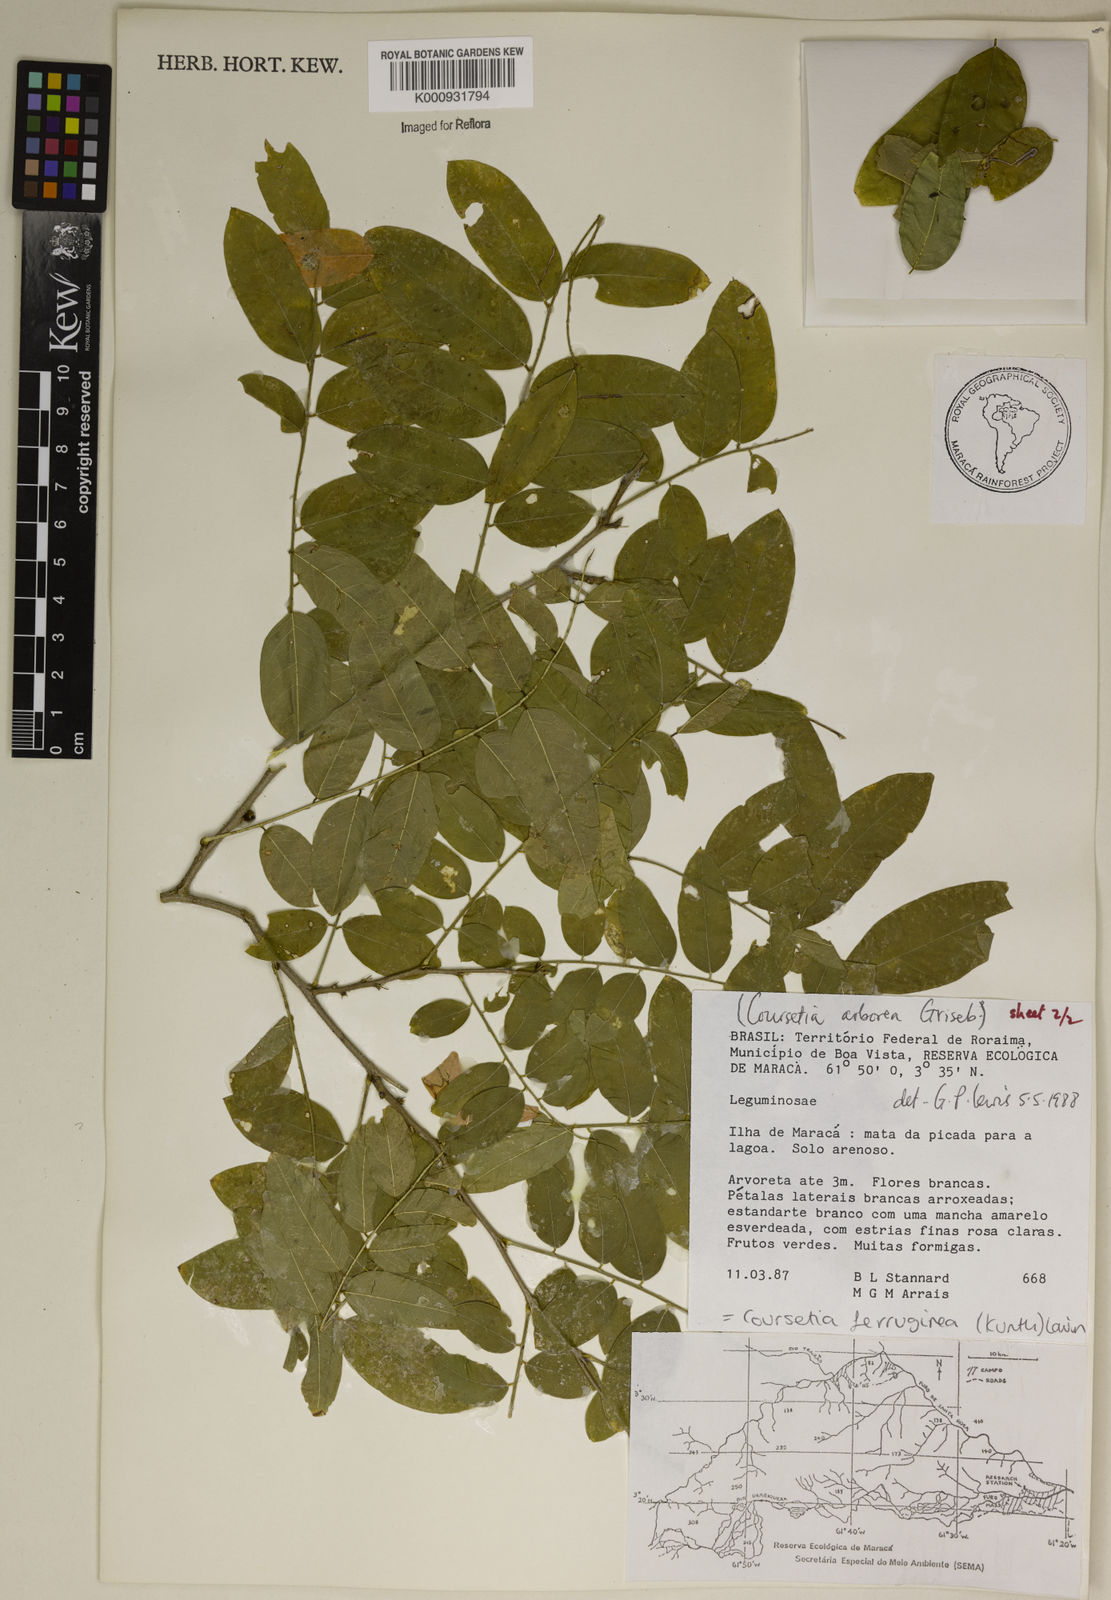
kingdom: Plantae
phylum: Tracheophyta
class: Magnoliopsida
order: Fabales
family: Fabaceae
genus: Coursetia
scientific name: Coursetia ferruginea
